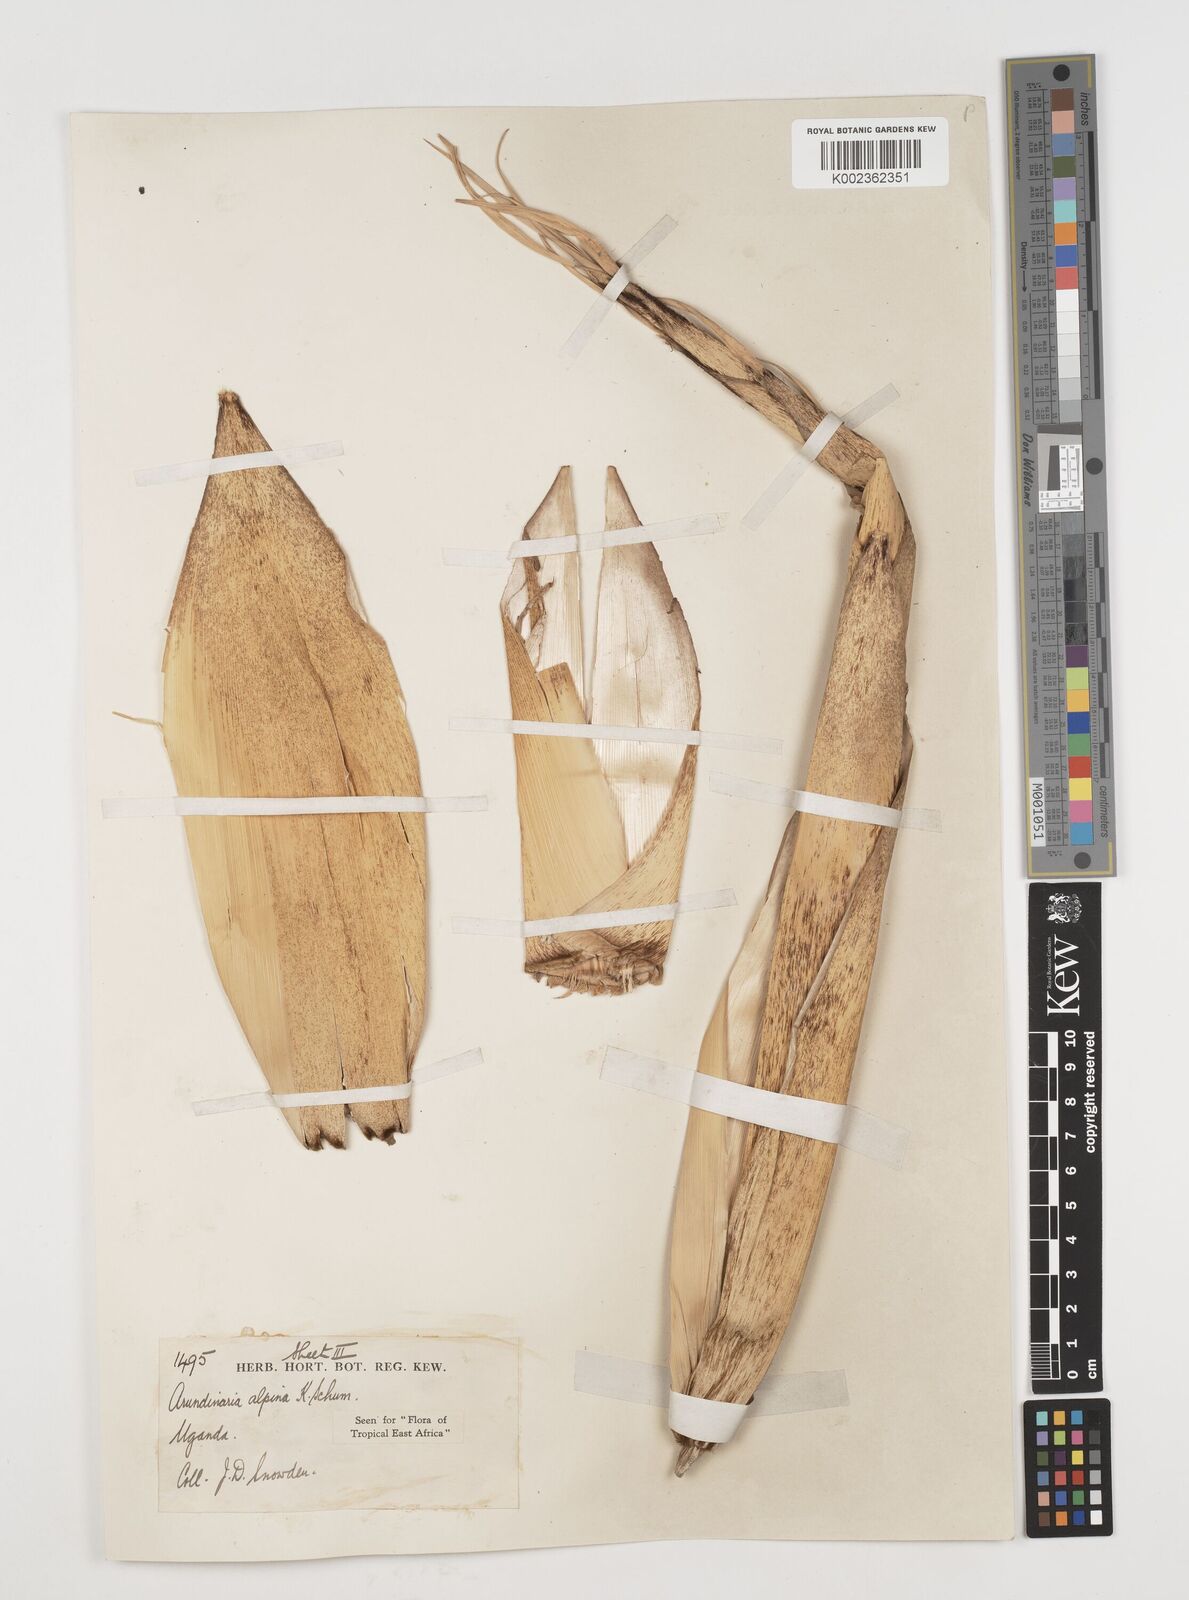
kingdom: Plantae
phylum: Tracheophyta
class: Liliopsida
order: Poales
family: Poaceae
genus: Oldeania
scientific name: Oldeania alpina
